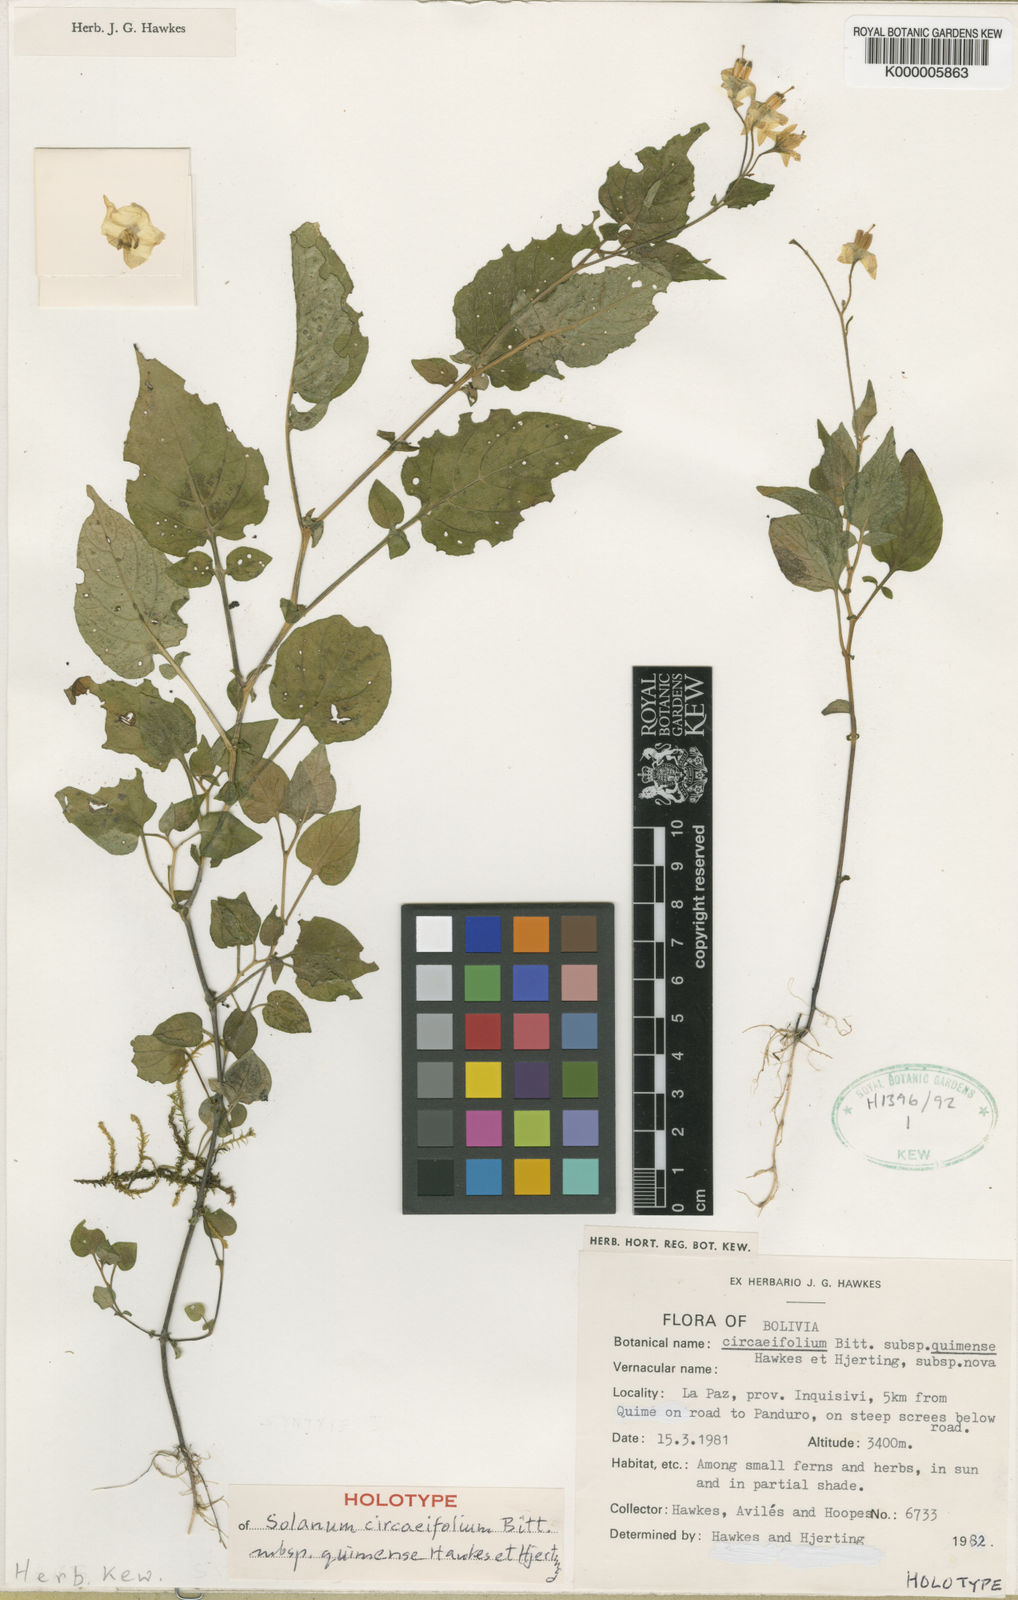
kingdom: Plantae
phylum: Tracheophyta
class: Magnoliopsida
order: Solanales
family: Solanaceae
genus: Solanum
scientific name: Solanum stipuloideum
